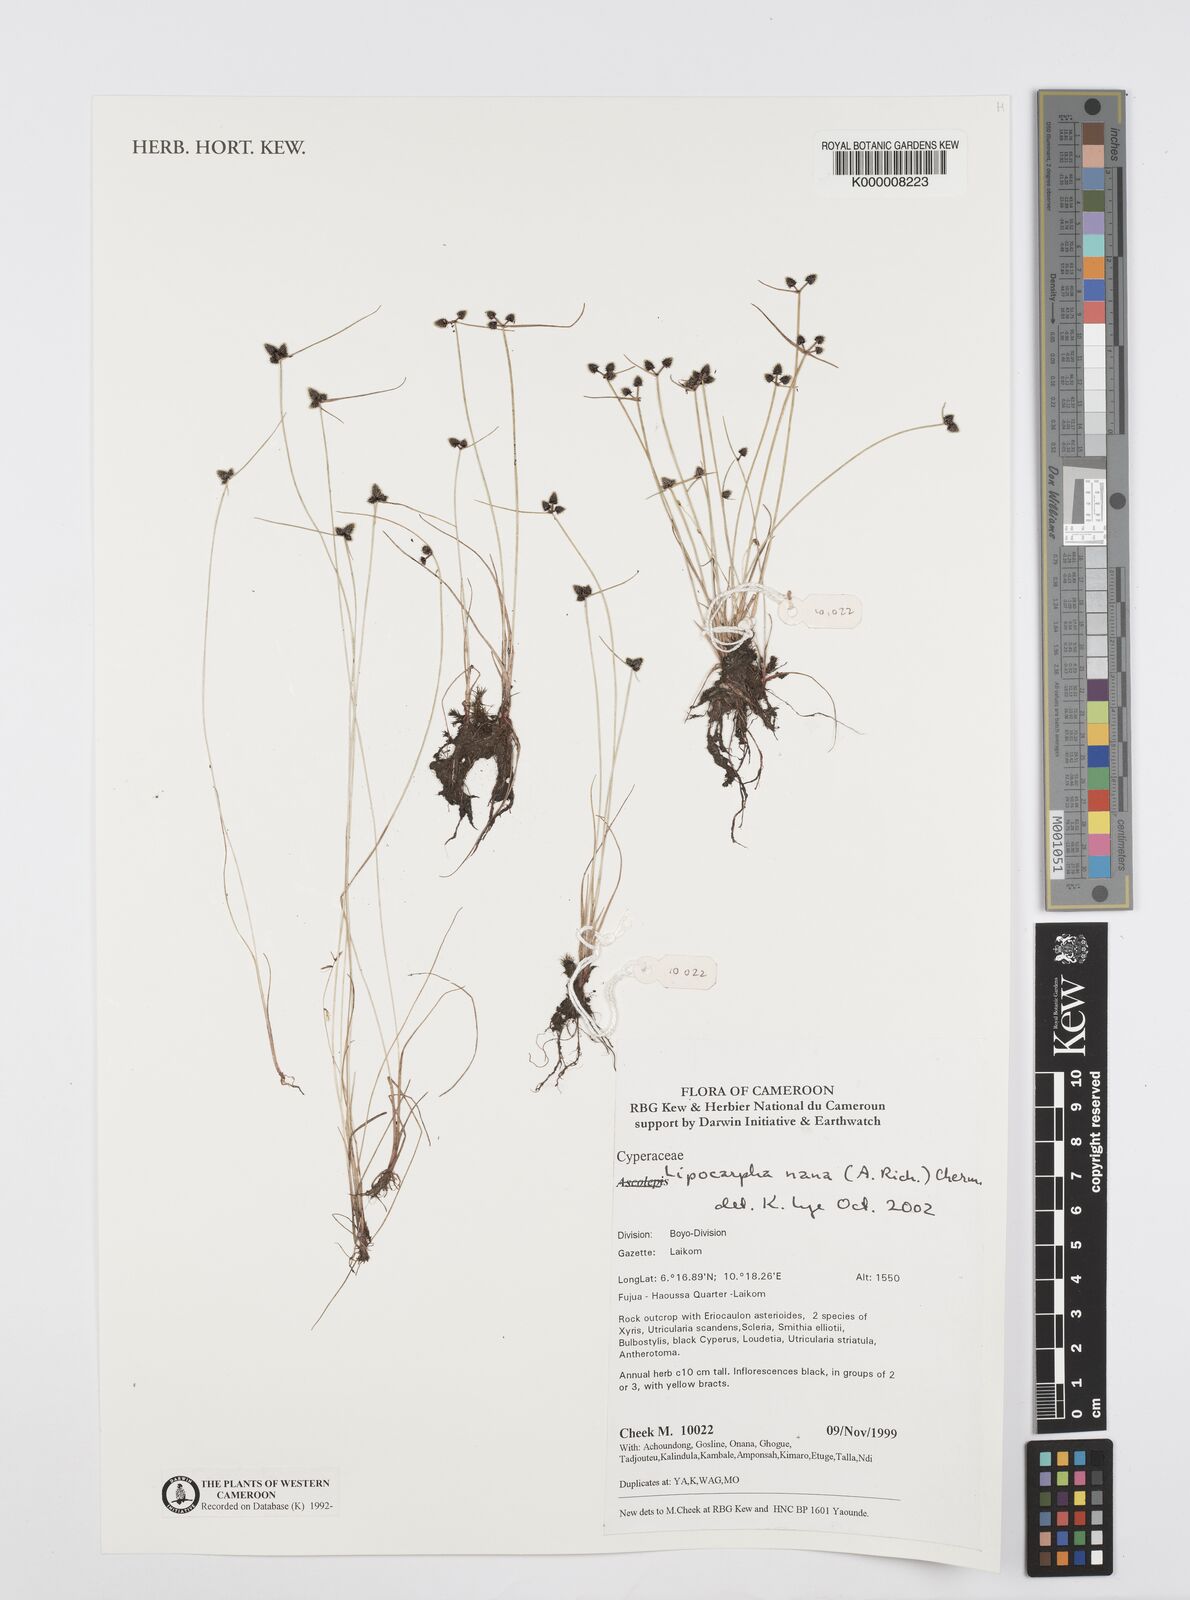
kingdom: Plantae
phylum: Tracheophyta
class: Liliopsida
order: Poales
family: Cyperaceae
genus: Cyperus
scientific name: Cyperus persquarrosus
